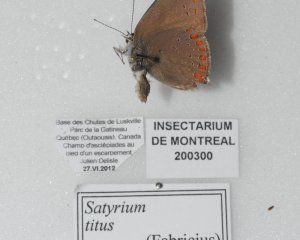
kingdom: Animalia
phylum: Arthropoda
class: Insecta
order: Lepidoptera
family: Lycaenidae
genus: Incisalia
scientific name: Incisalia henrici
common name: Henry's Elfin
